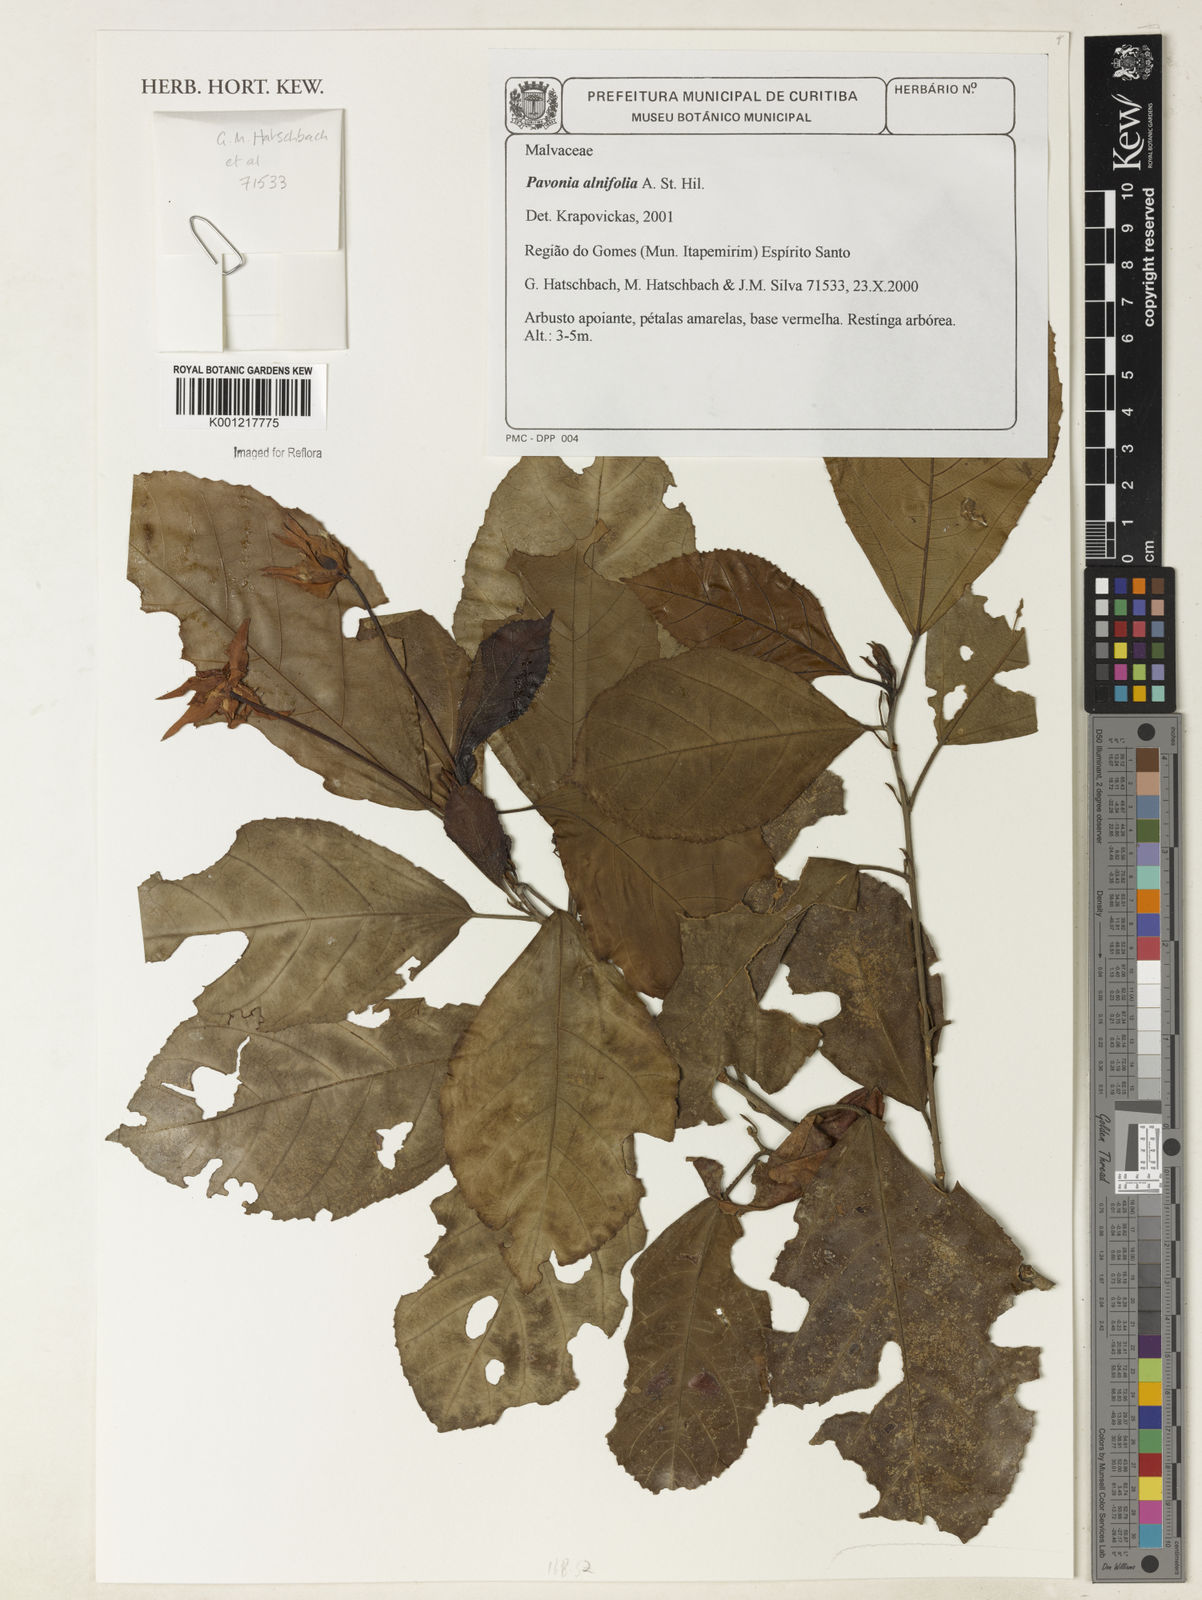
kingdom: Plantae
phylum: Tracheophyta
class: Magnoliopsida
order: Malvales
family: Malvaceae
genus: Pavonia
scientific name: Pavonia alnifolia
